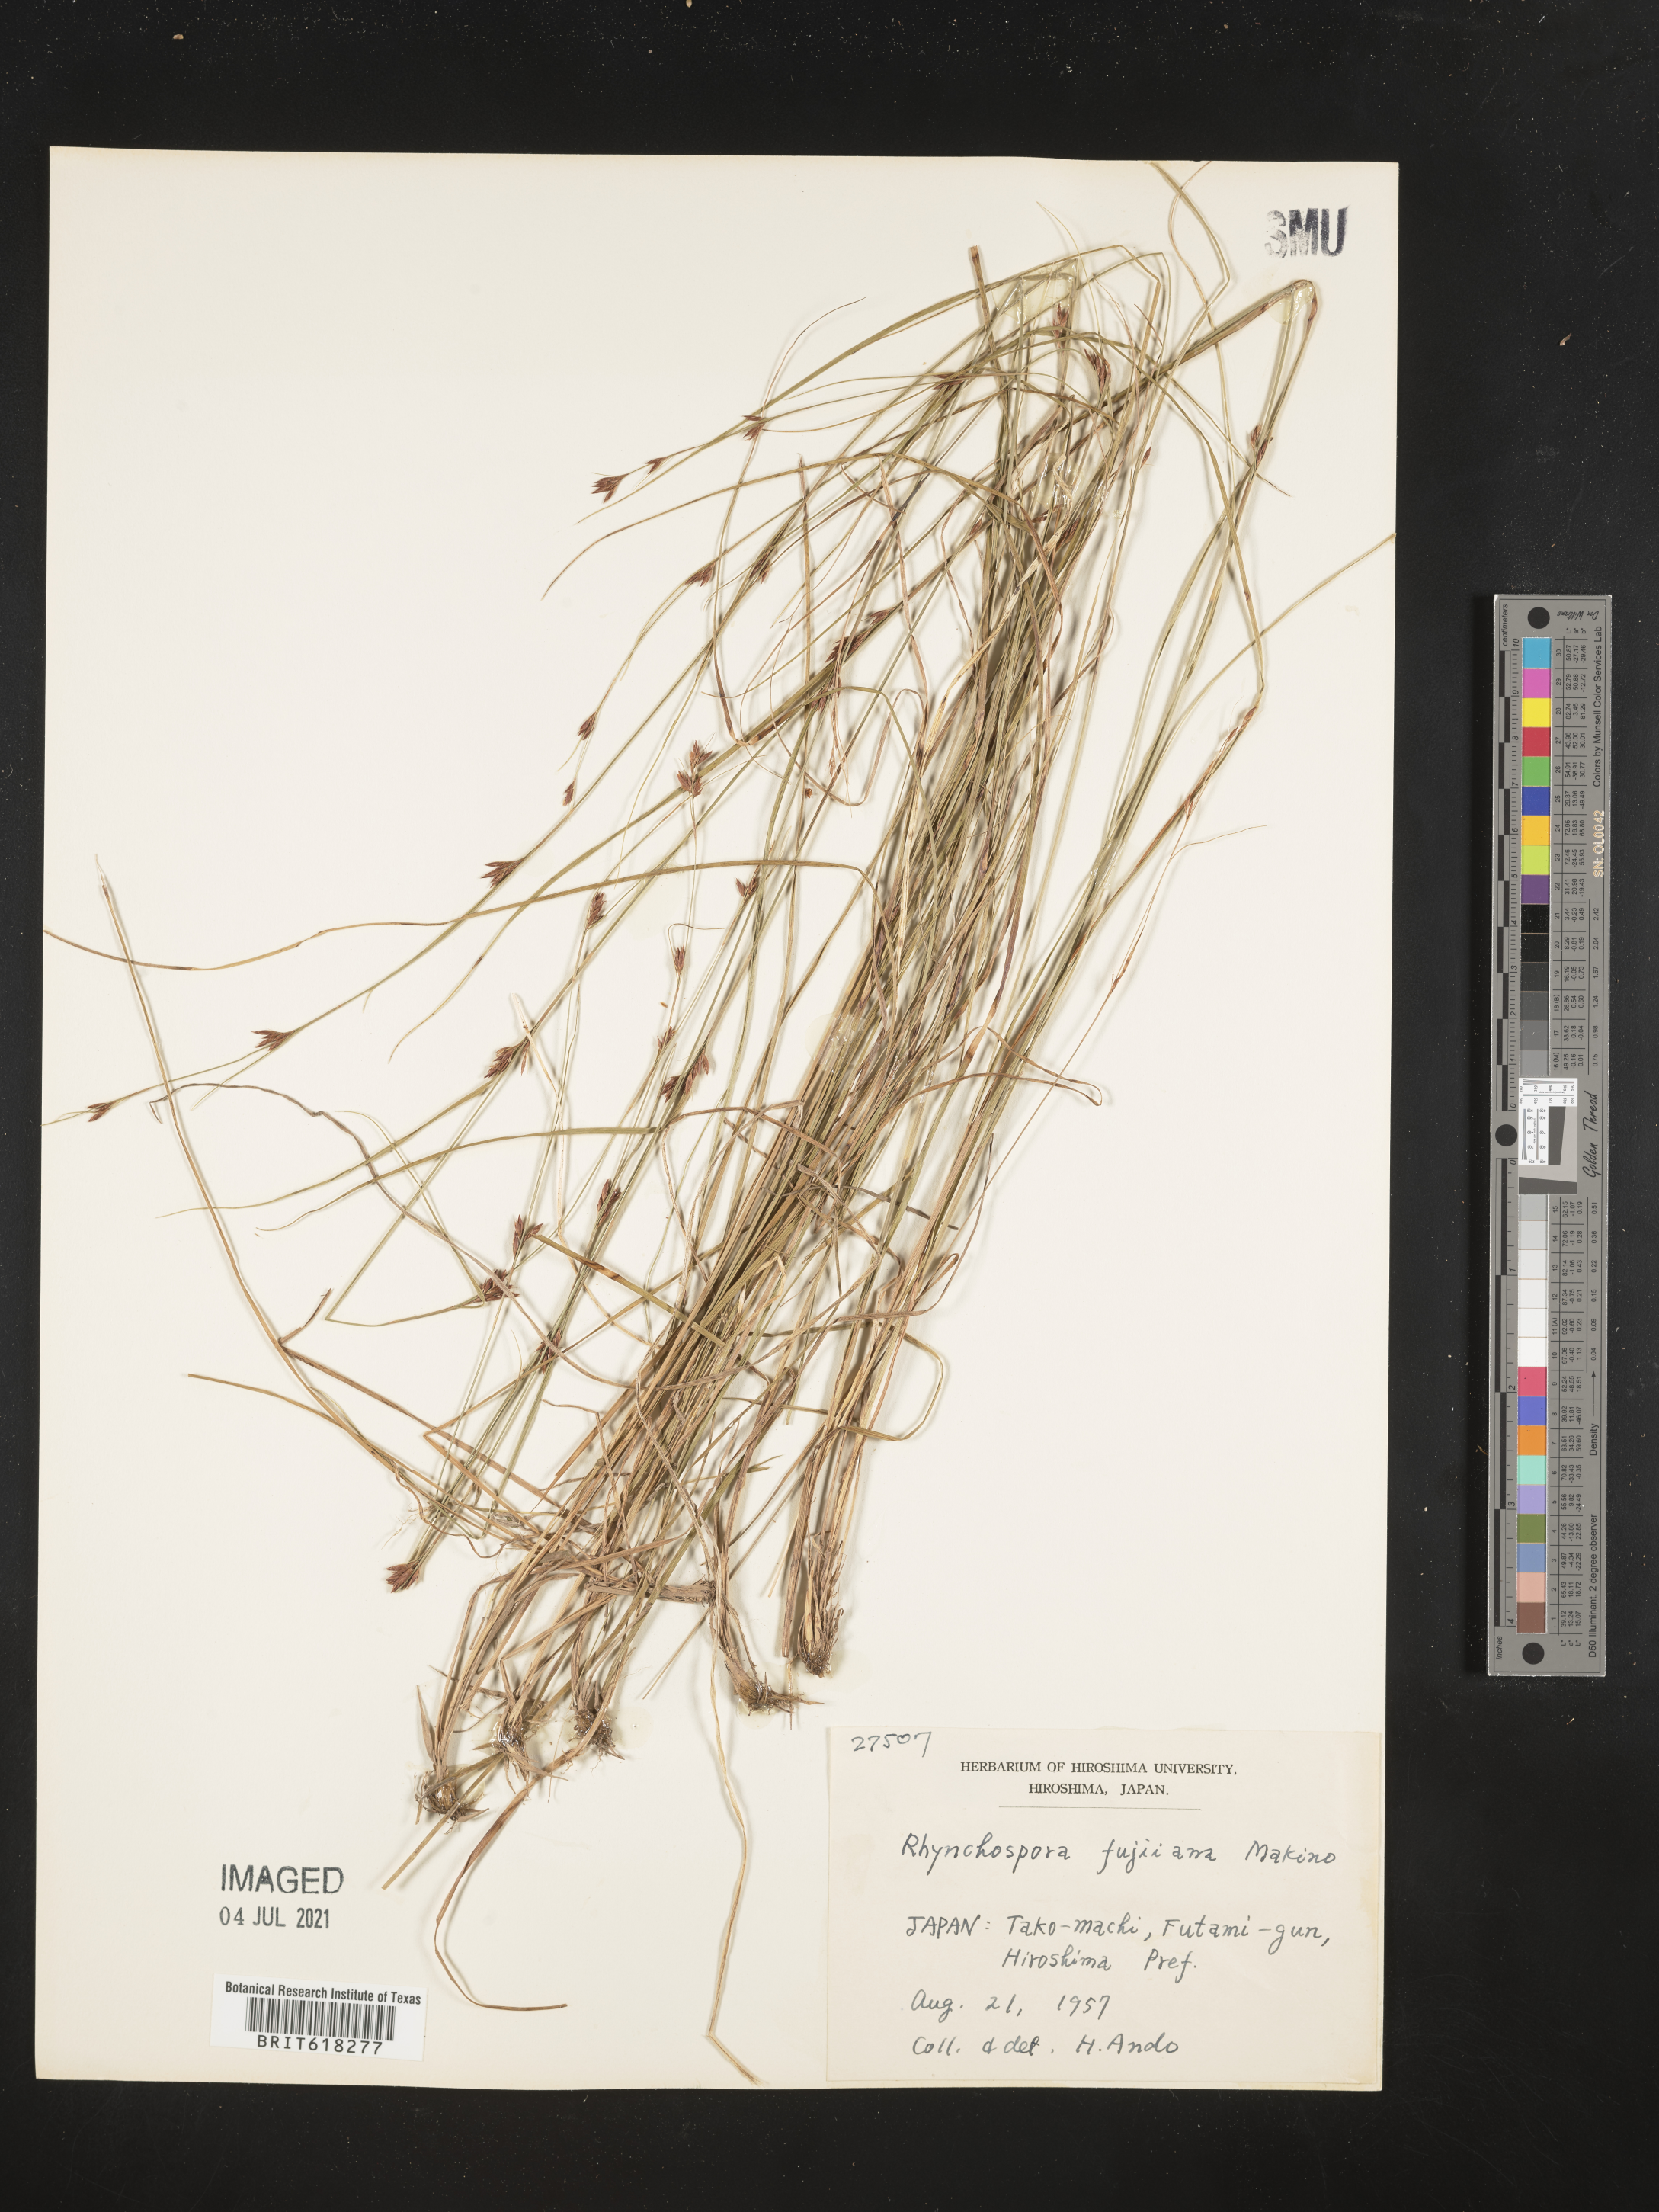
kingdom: Plantae
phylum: Tracheophyta
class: Liliopsida
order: Poales
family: Cyperaceae
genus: Rhynchospora
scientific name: Rhynchospora fujiiana
